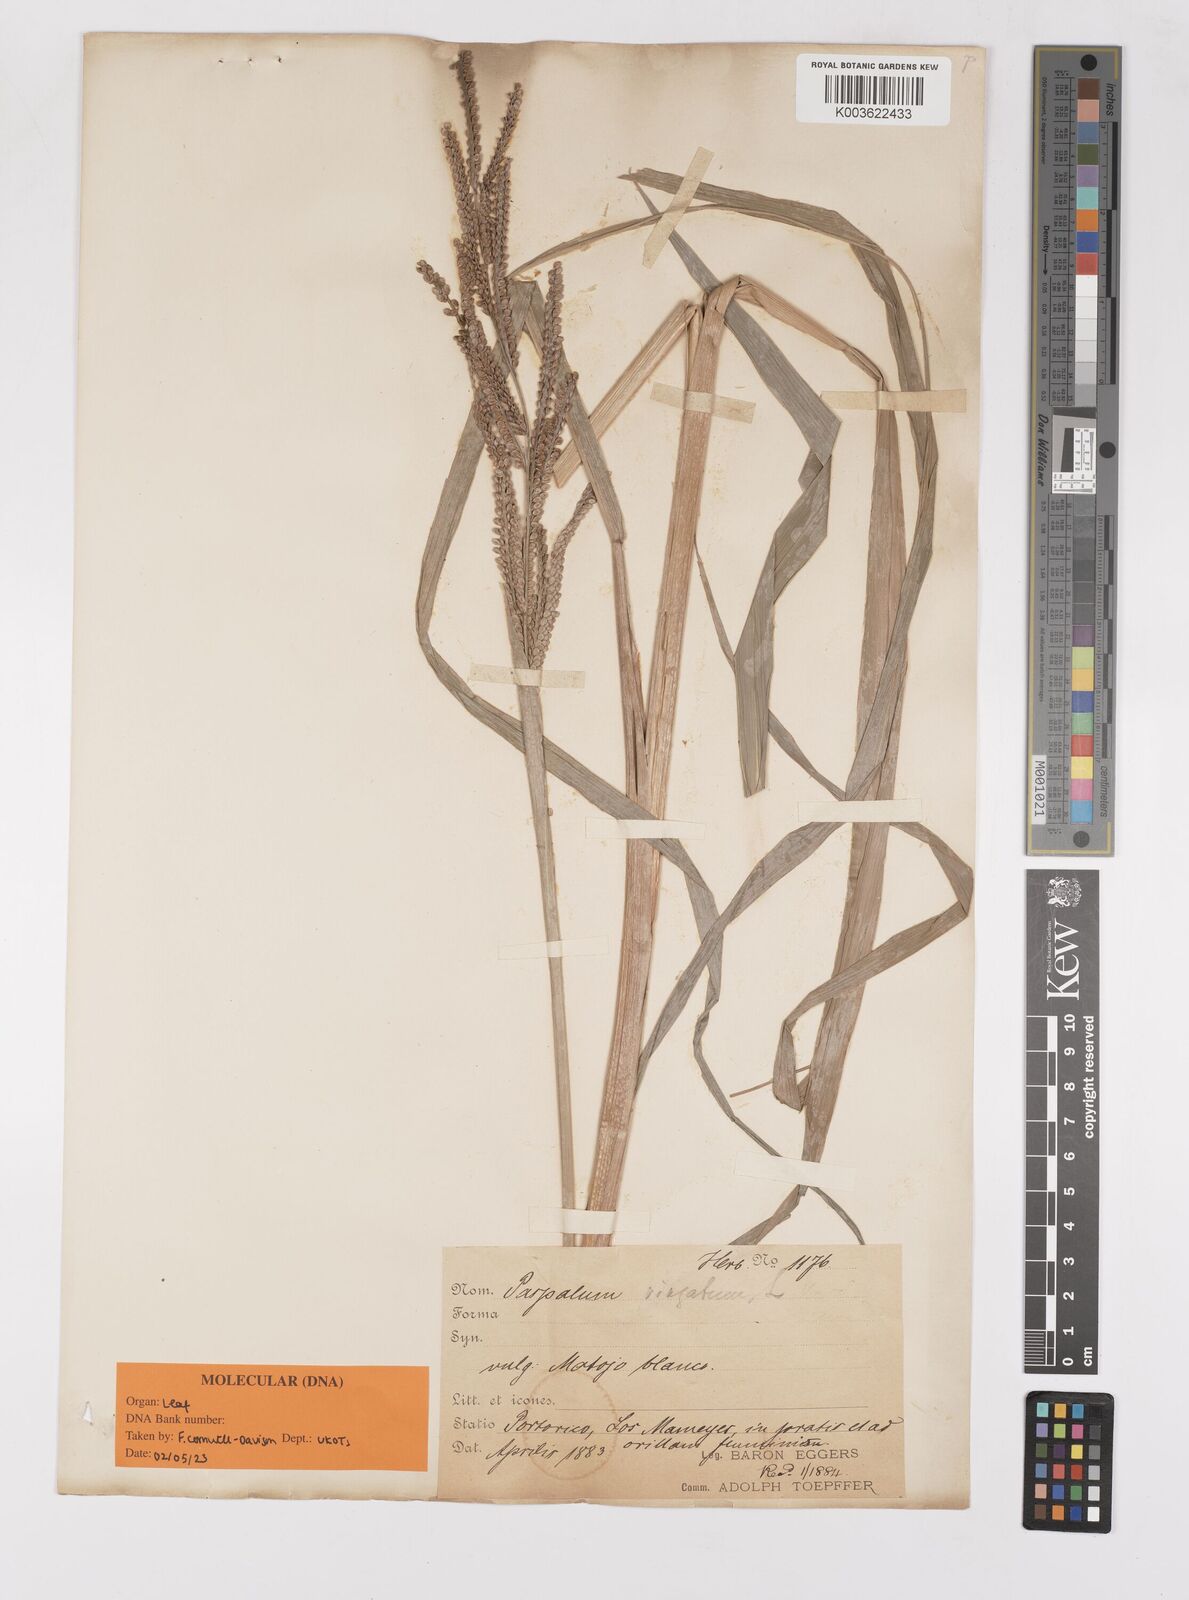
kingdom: Plantae
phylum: Tracheophyta
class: Liliopsida
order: Poales
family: Poaceae
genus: Paspalum
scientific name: Paspalum virgatum
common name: Talquezal
